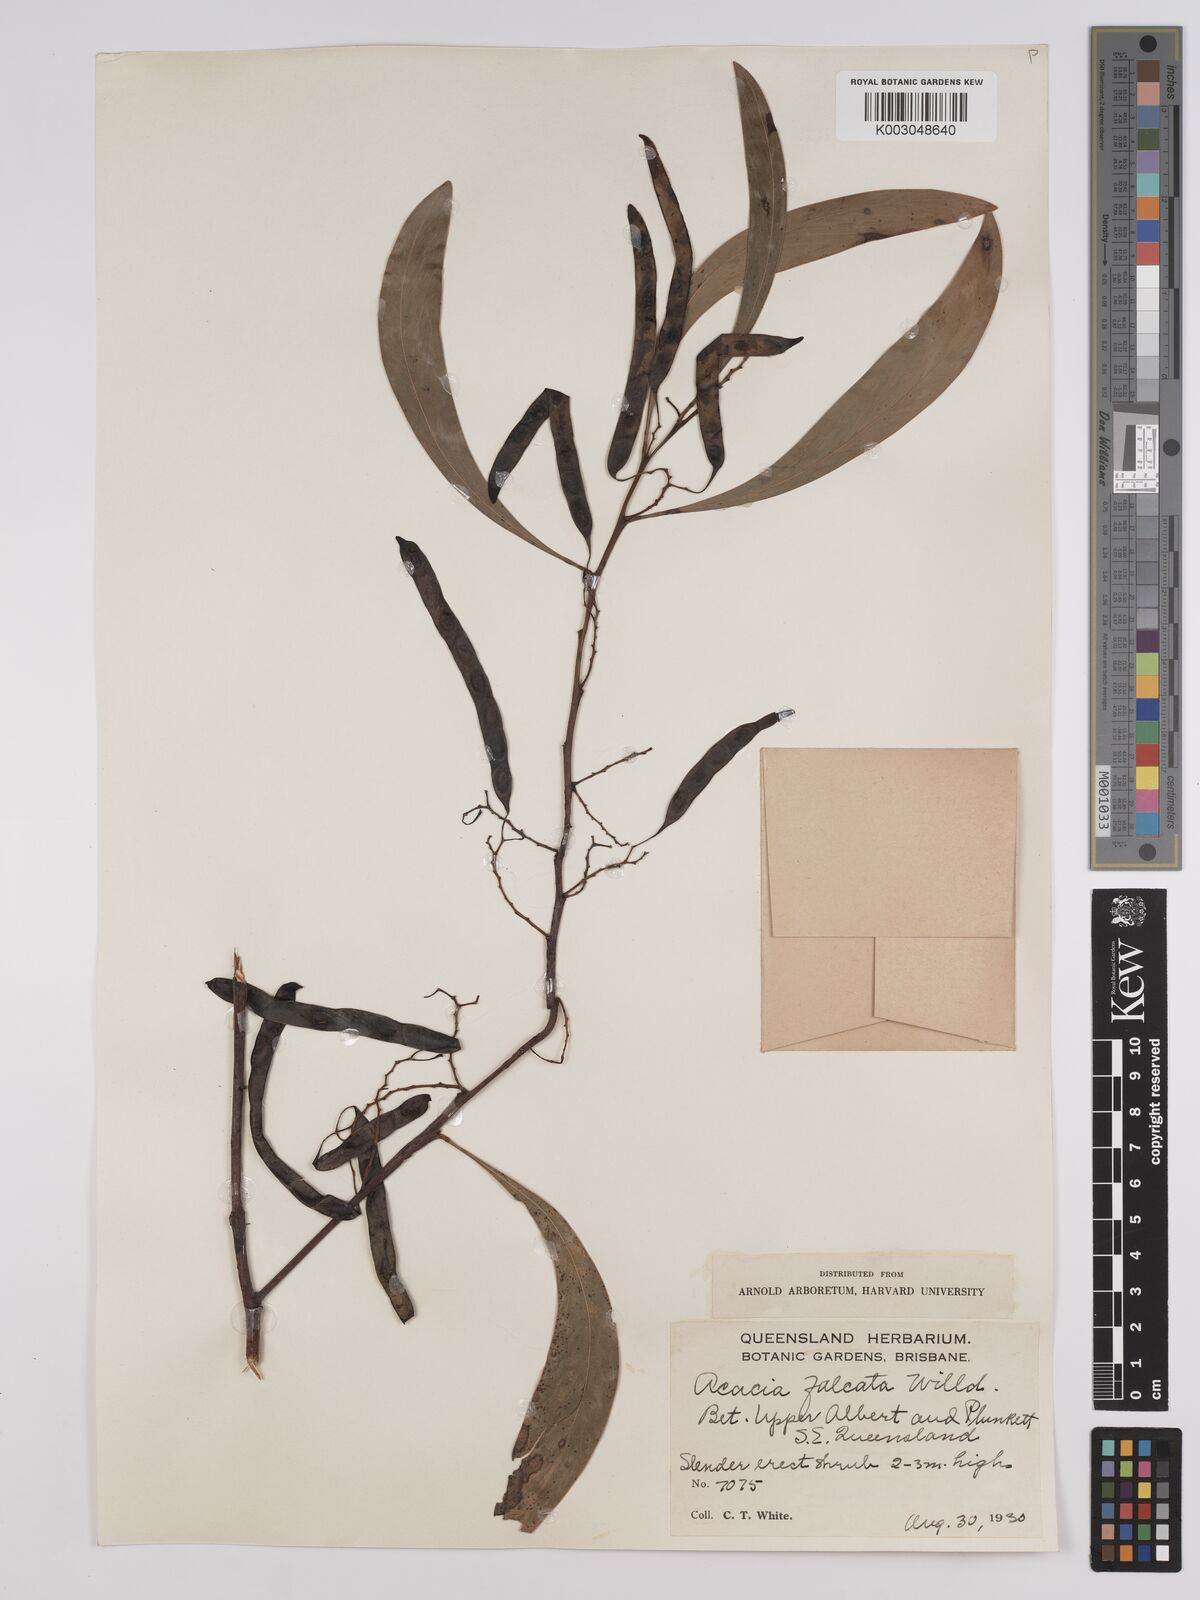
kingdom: Plantae
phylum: Tracheophyta
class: Magnoliopsida
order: Fabales
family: Fabaceae
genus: Acacia
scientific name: Acacia falcata
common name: Burra acacia
